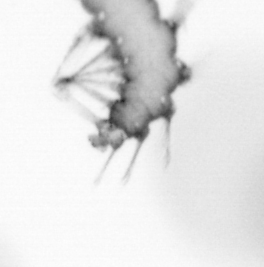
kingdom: Animalia
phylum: Annelida
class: Polychaeta
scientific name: Polychaeta
